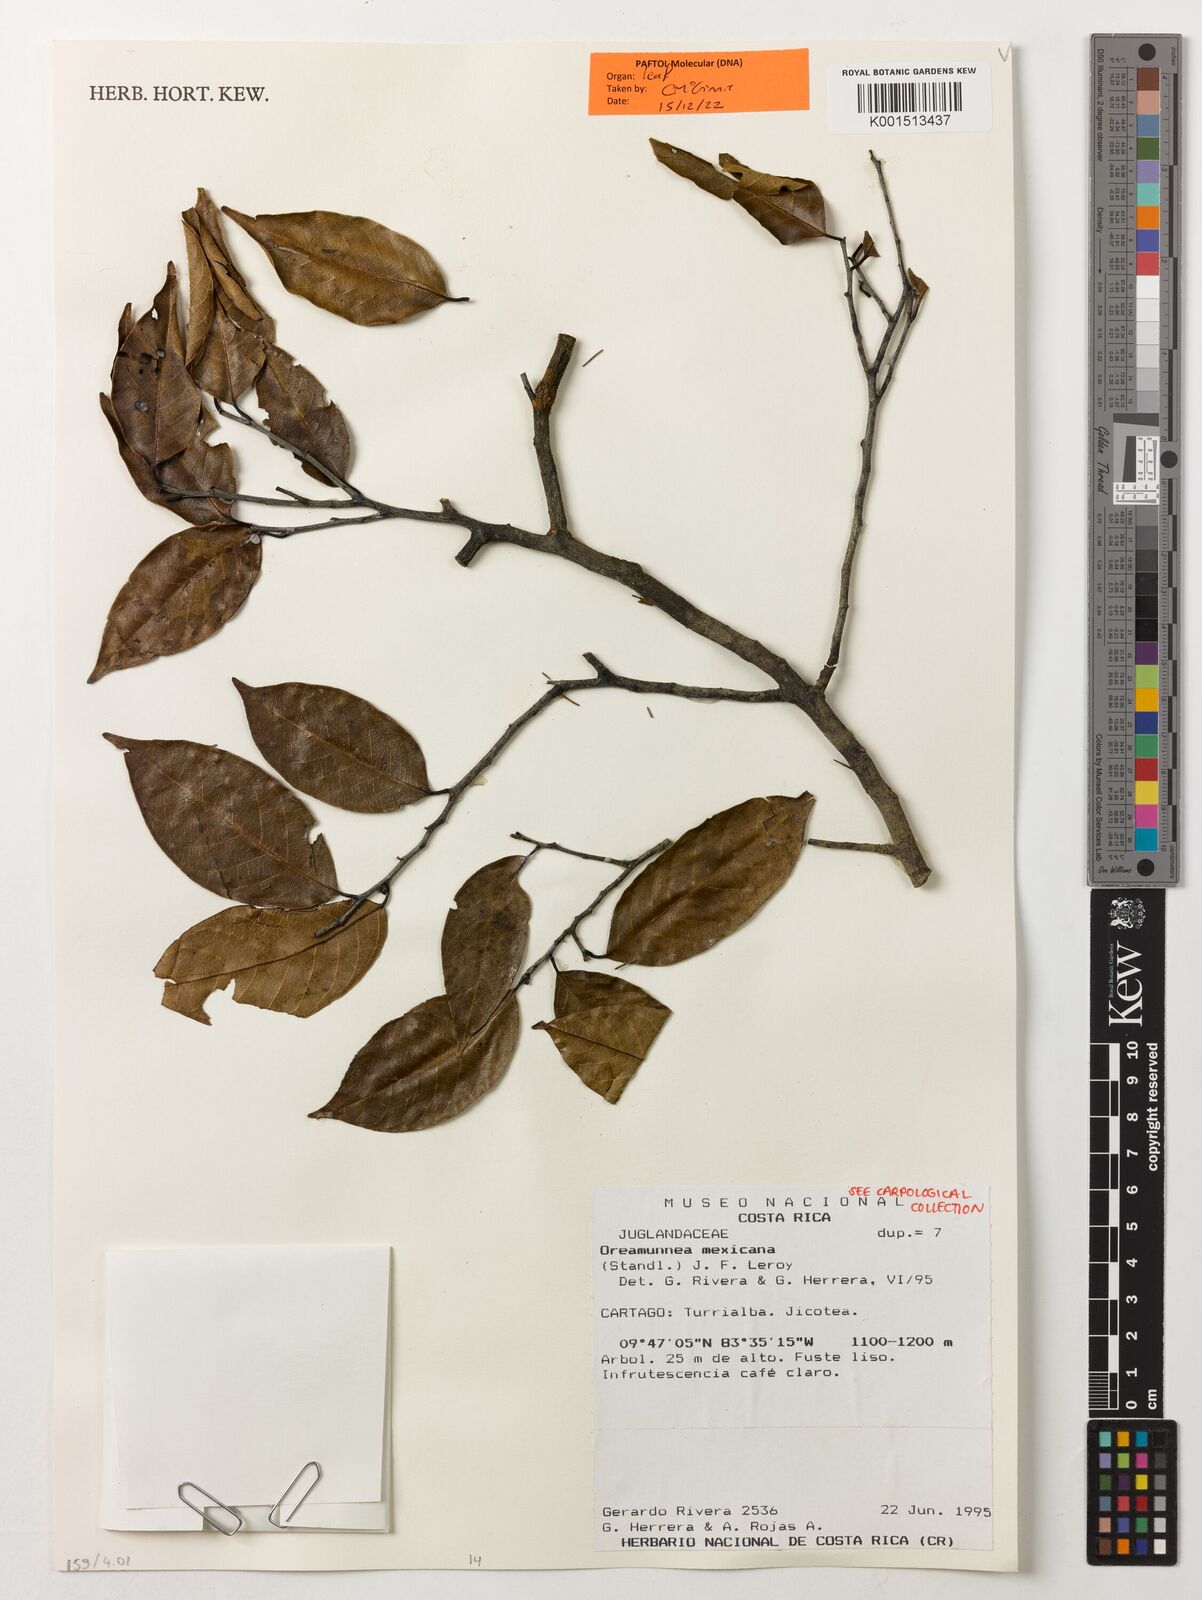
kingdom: Plantae
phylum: Tracheophyta
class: Magnoliopsida
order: Fagales
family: Juglandaceae
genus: Oreomunnea
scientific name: Oreomunnea mexicana
